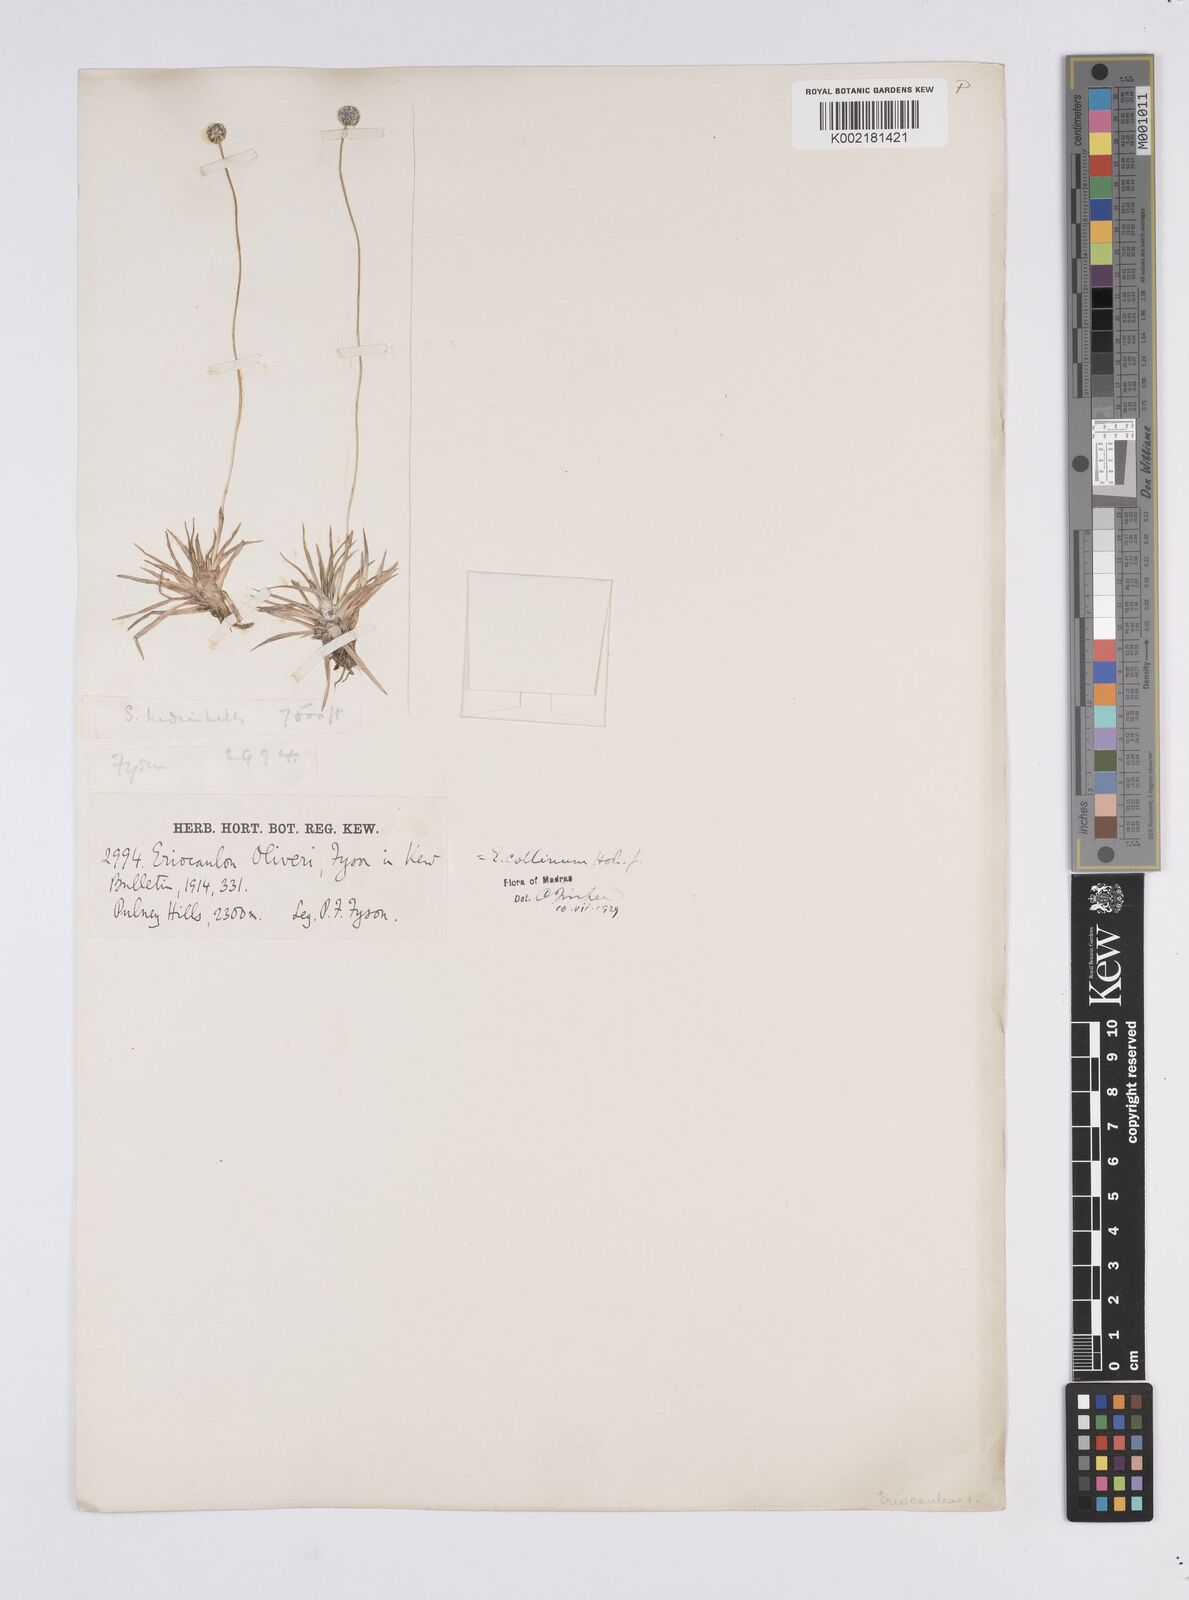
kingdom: Plantae
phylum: Tracheophyta
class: Liliopsida
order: Poales
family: Eriocaulaceae
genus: Eriocaulon
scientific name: Eriocaulon odoratum
